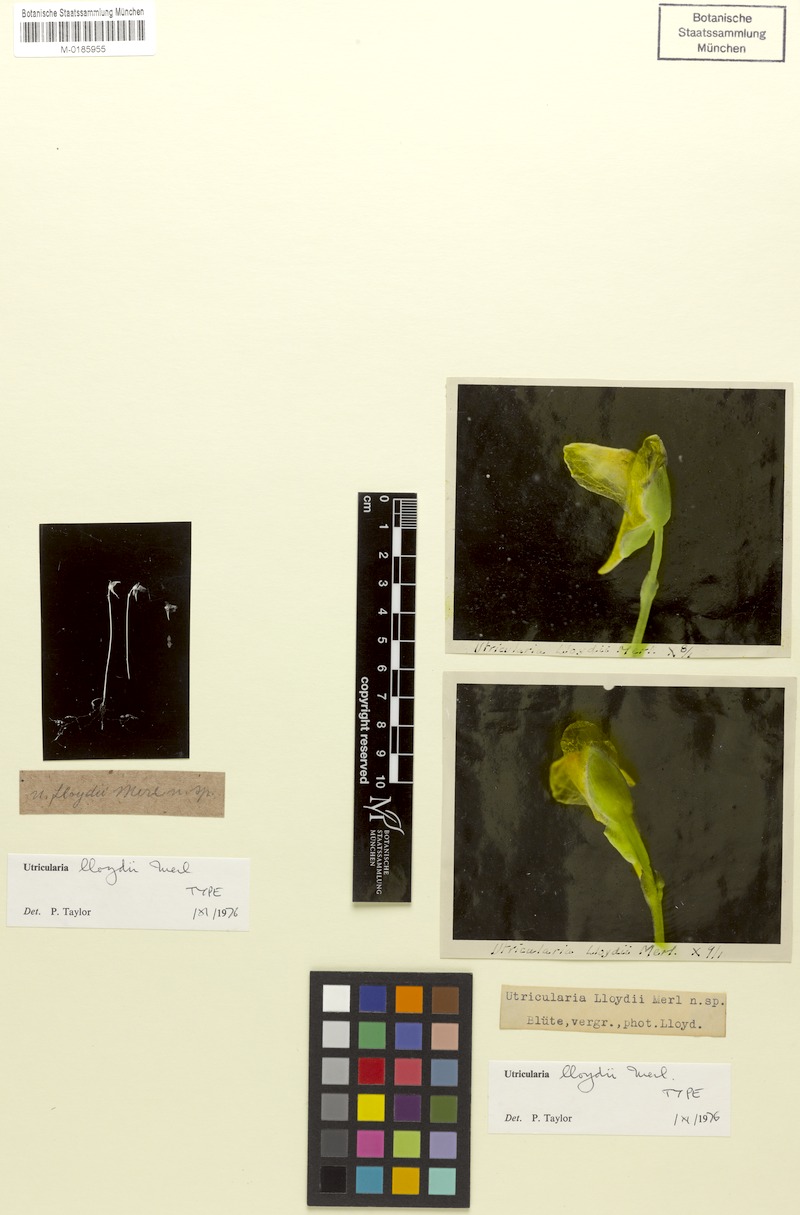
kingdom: Plantae
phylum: Tracheophyta
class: Magnoliopsida
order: Lamiales
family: Lentibulariaceae
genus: Utricularia
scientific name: Utricularia lloydii
